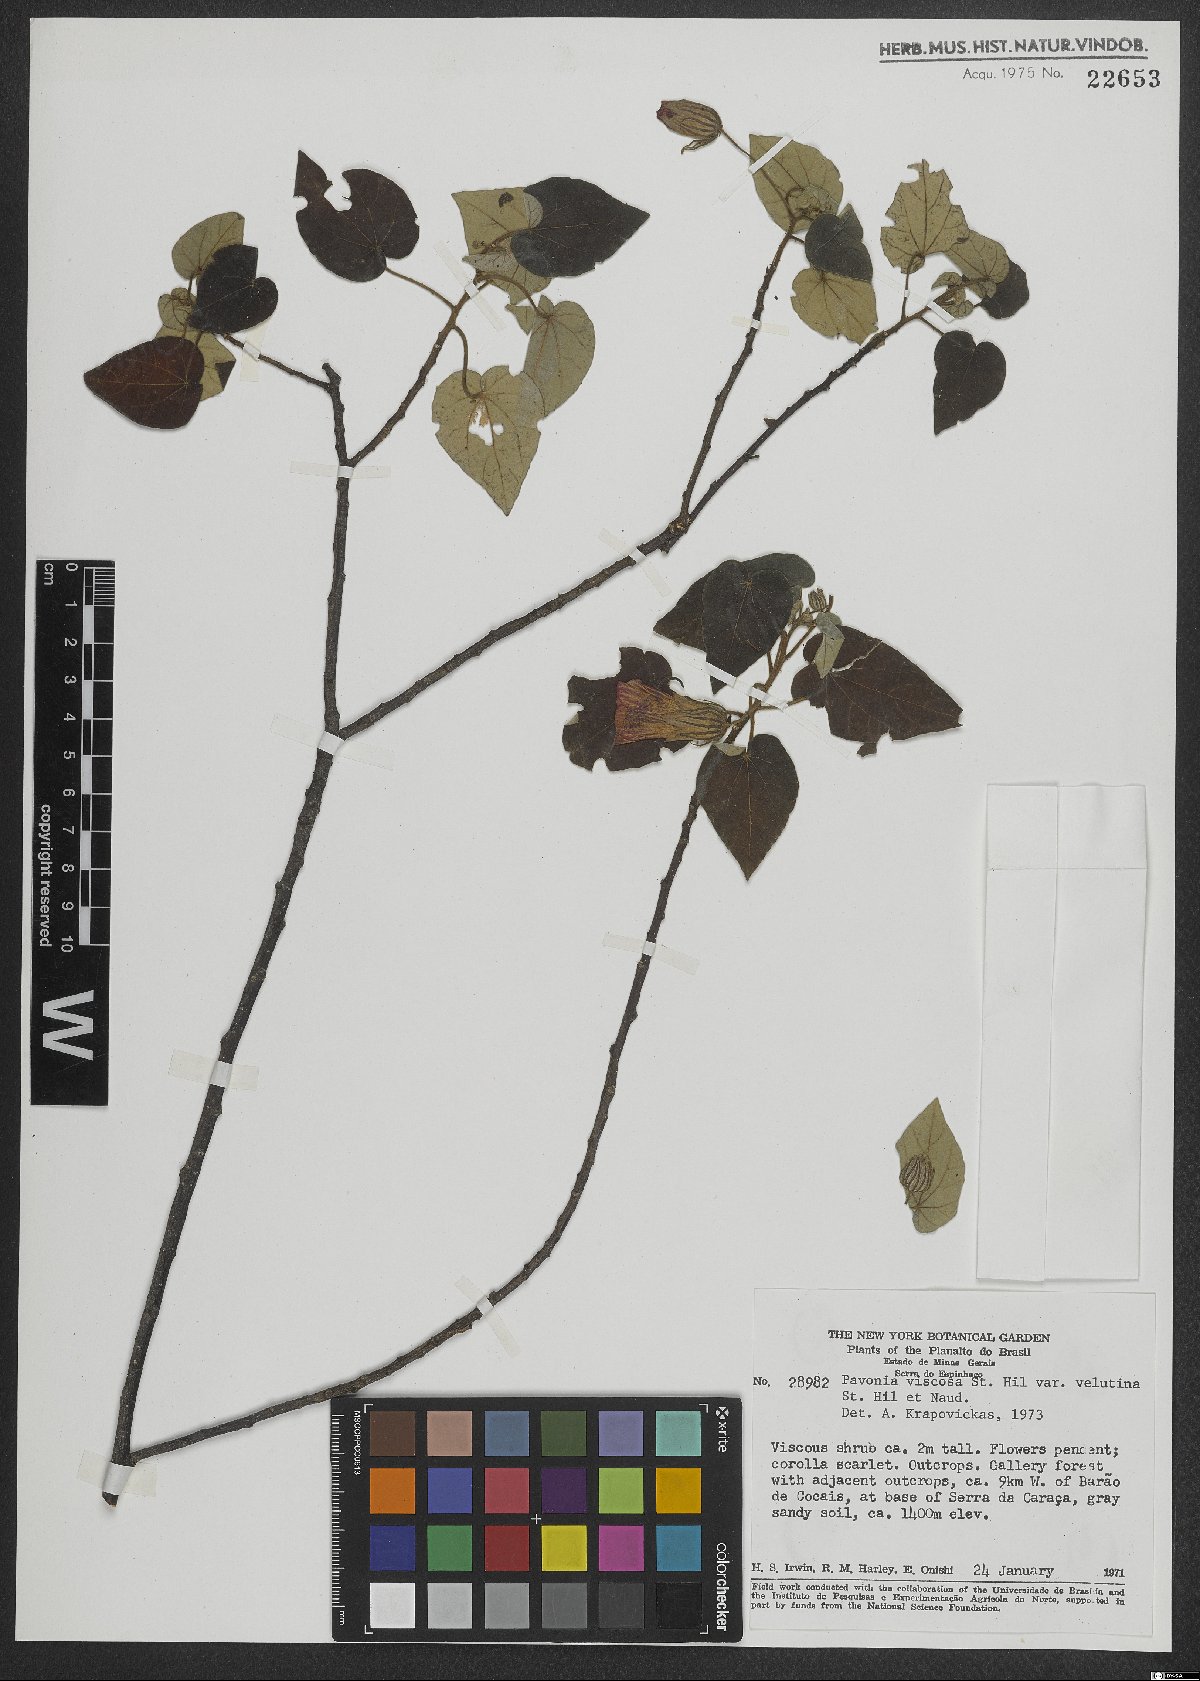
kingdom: Plantae
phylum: Tracheophyta
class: Magnoliopsida
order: Malvales
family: Malvaceae
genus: Pavonia
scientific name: Pavonia viscosa
